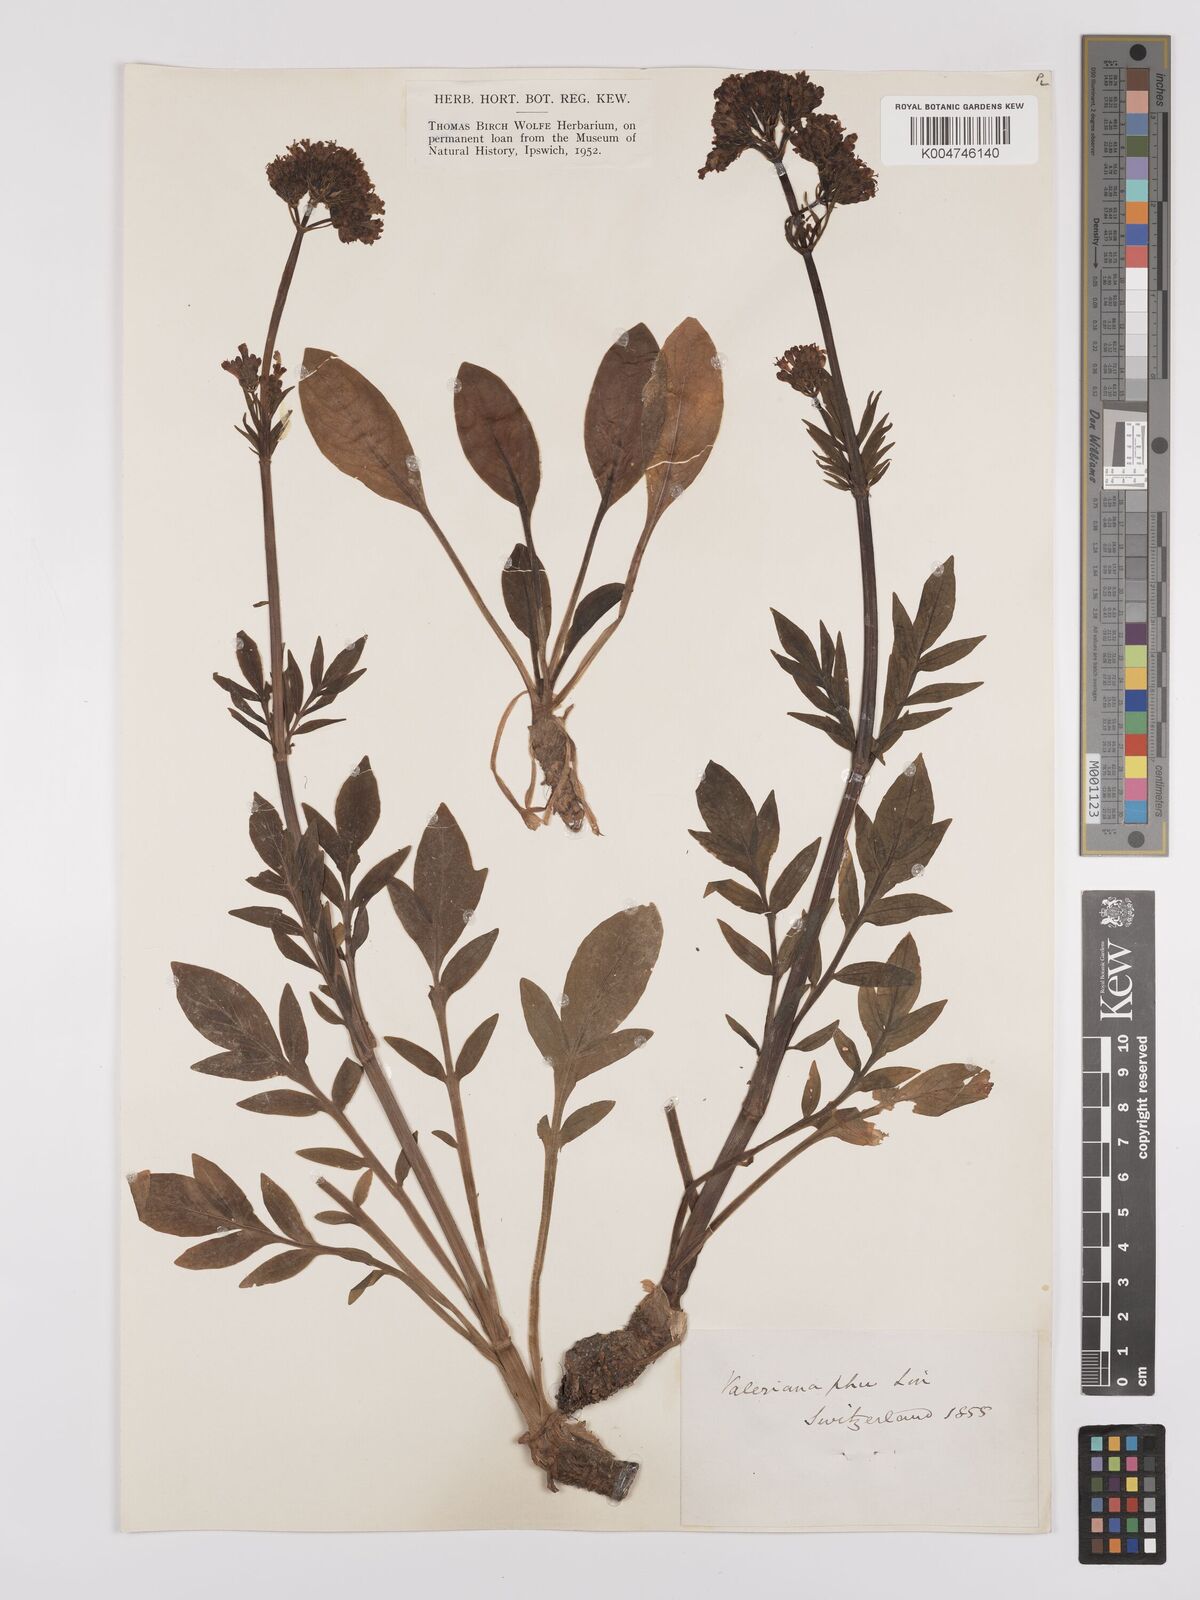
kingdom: Plantae
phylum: Tracheophyta
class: Magnoliopsida
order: Dipsacales
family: Caprifoliaceae
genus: Valeriana
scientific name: Valeriana phu
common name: Turkey valerian
